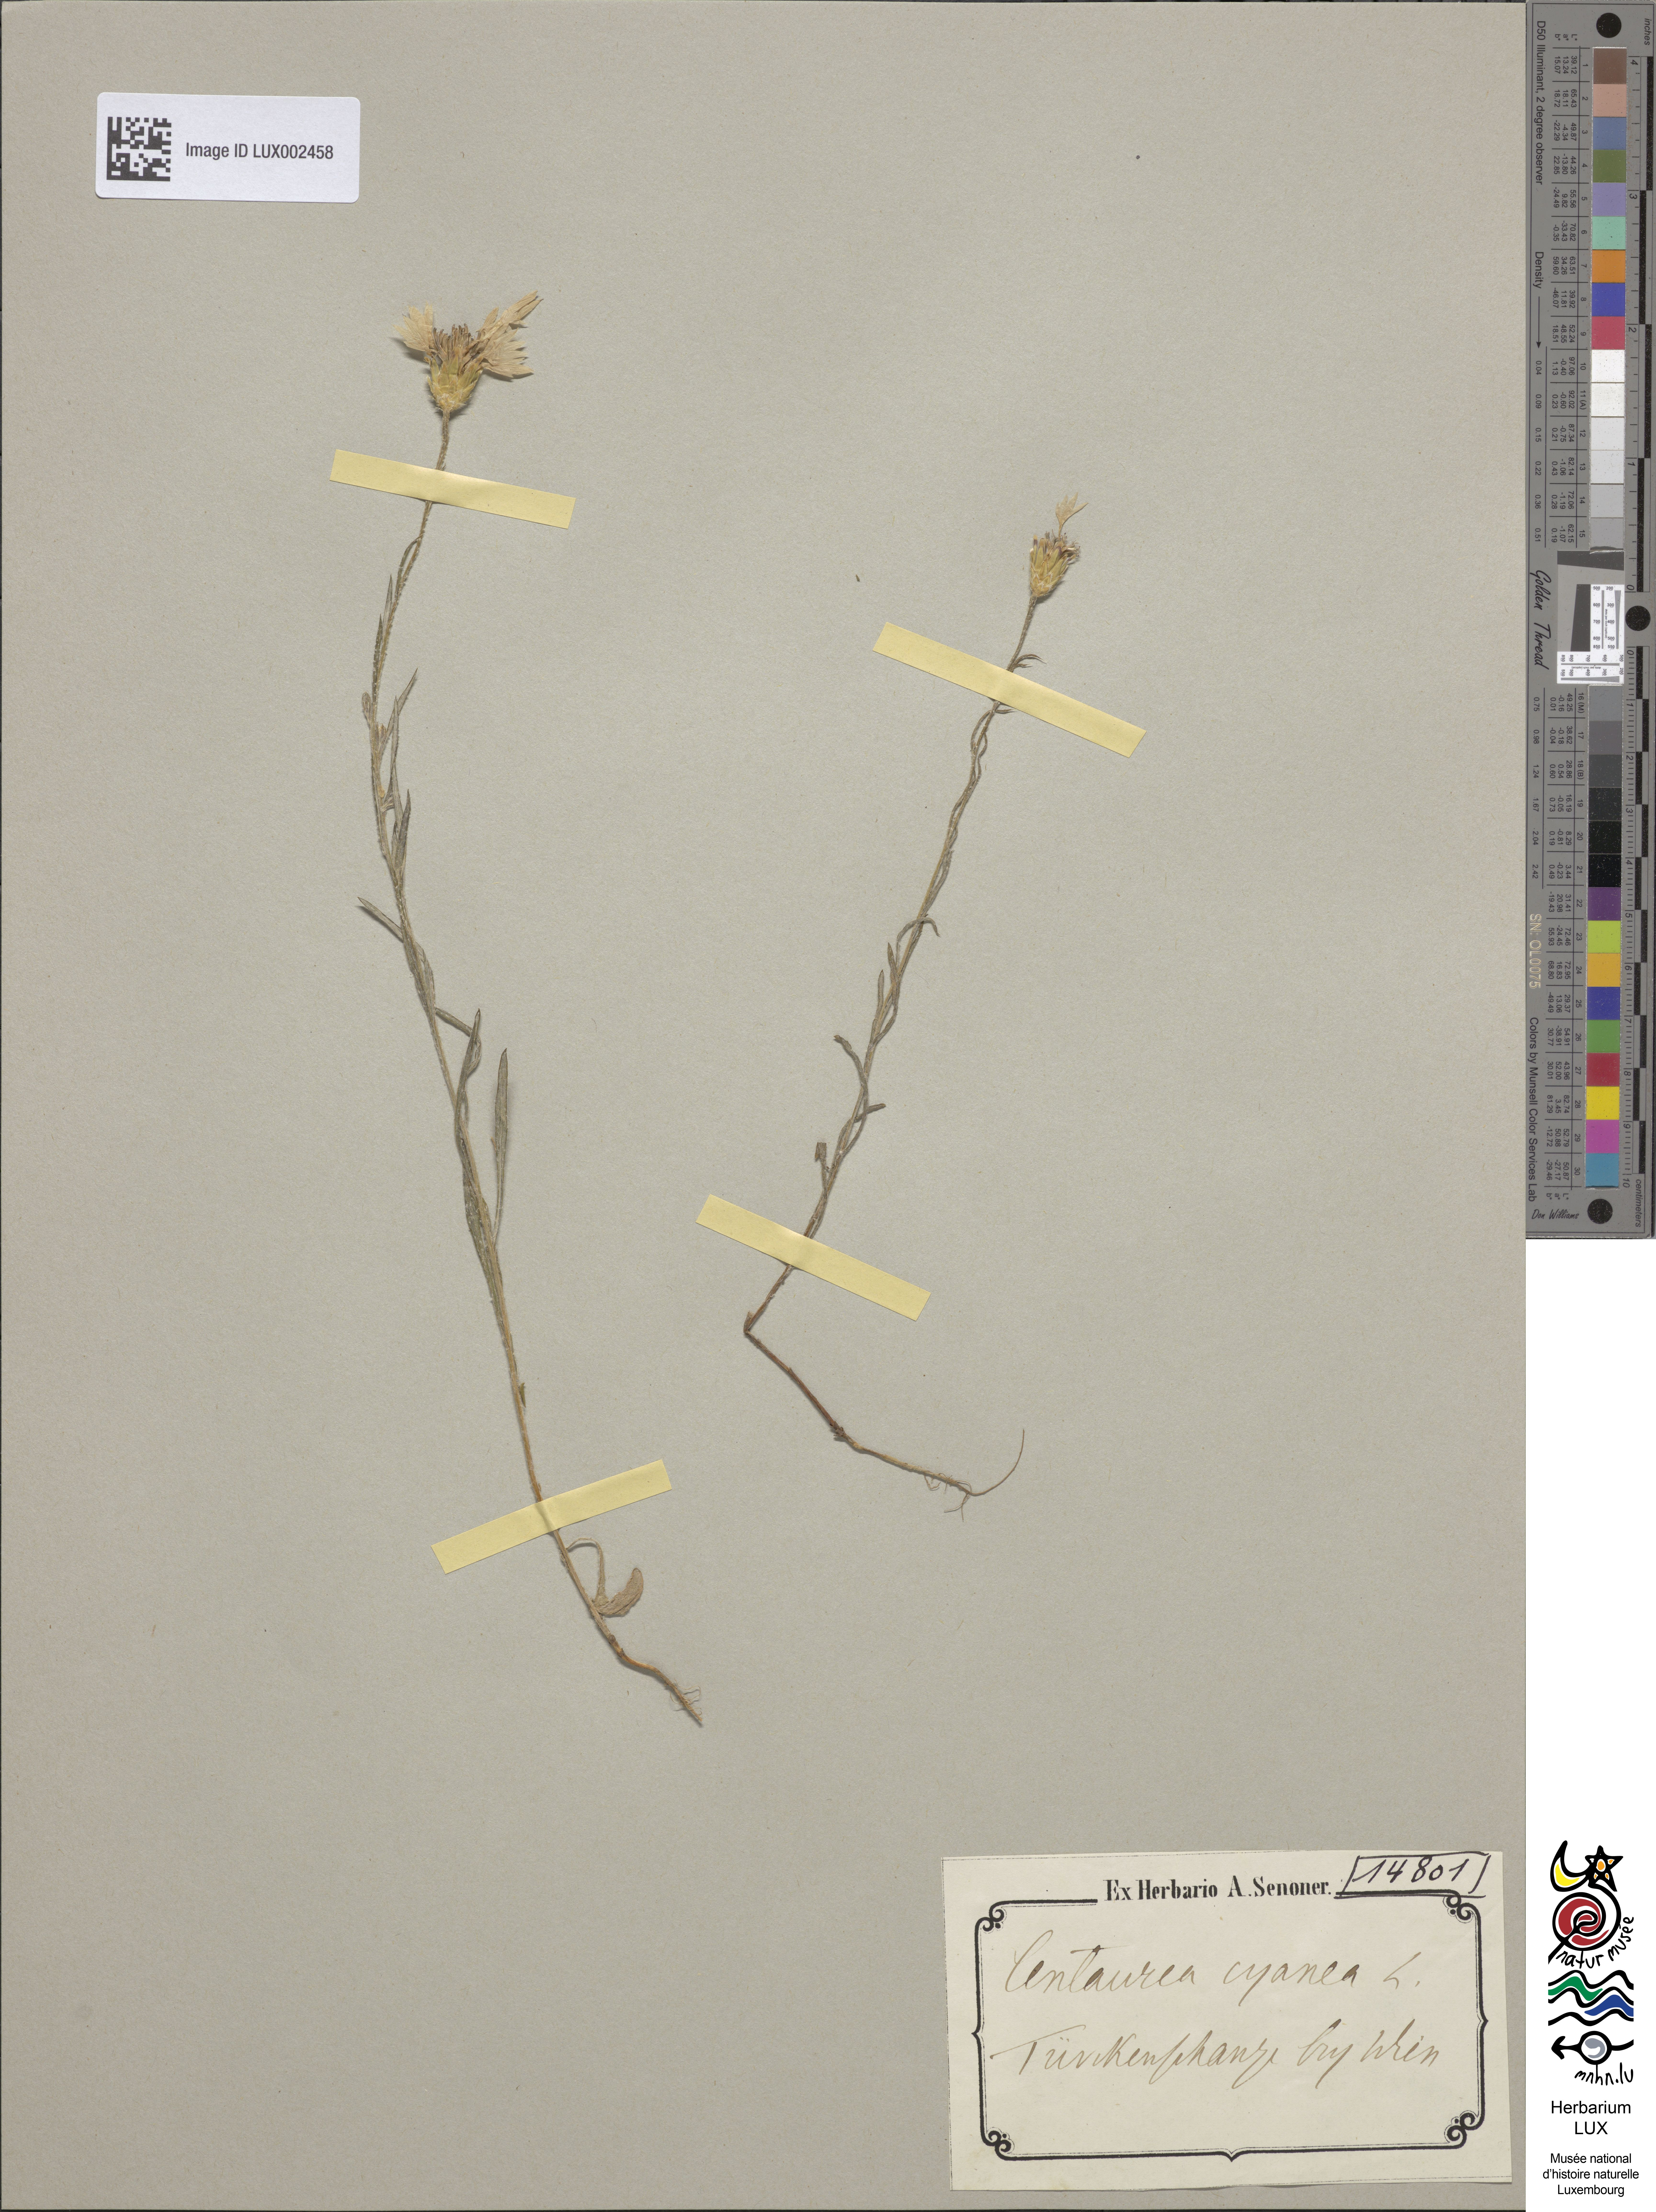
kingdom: Plantae
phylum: Tracheophyta
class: Magnoliopsida
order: Asterales
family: Asteraceae
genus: Centaurea
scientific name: Centaurea cyanus
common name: Cornflower
